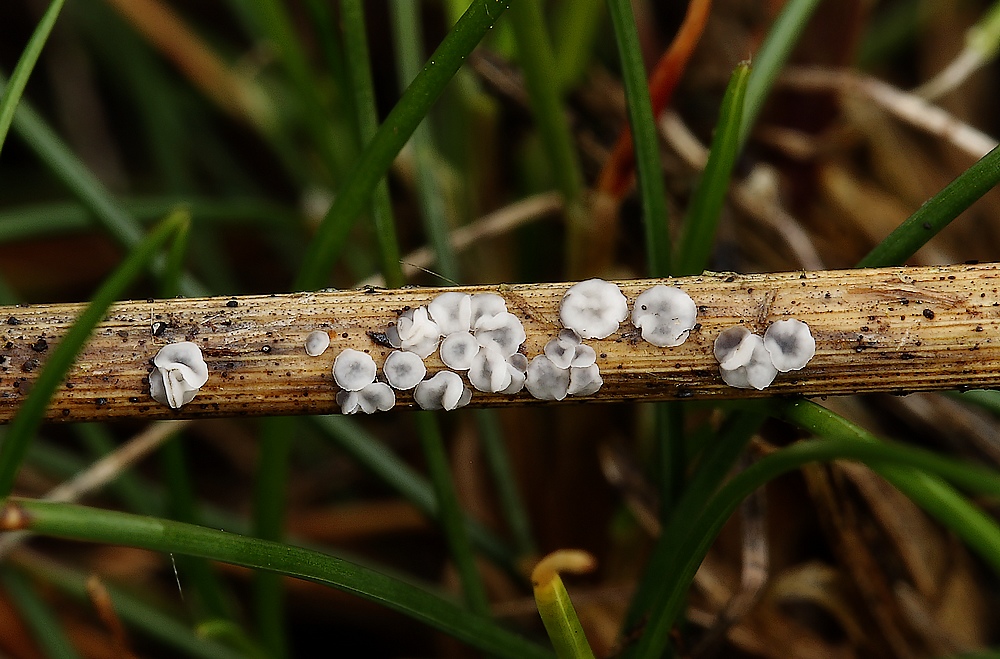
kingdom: Fungi
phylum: Ascomycota
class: Leotiomycetes
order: Helotiales
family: Mollisiaceae
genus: Mollisia
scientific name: Mollisia
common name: gråskive
